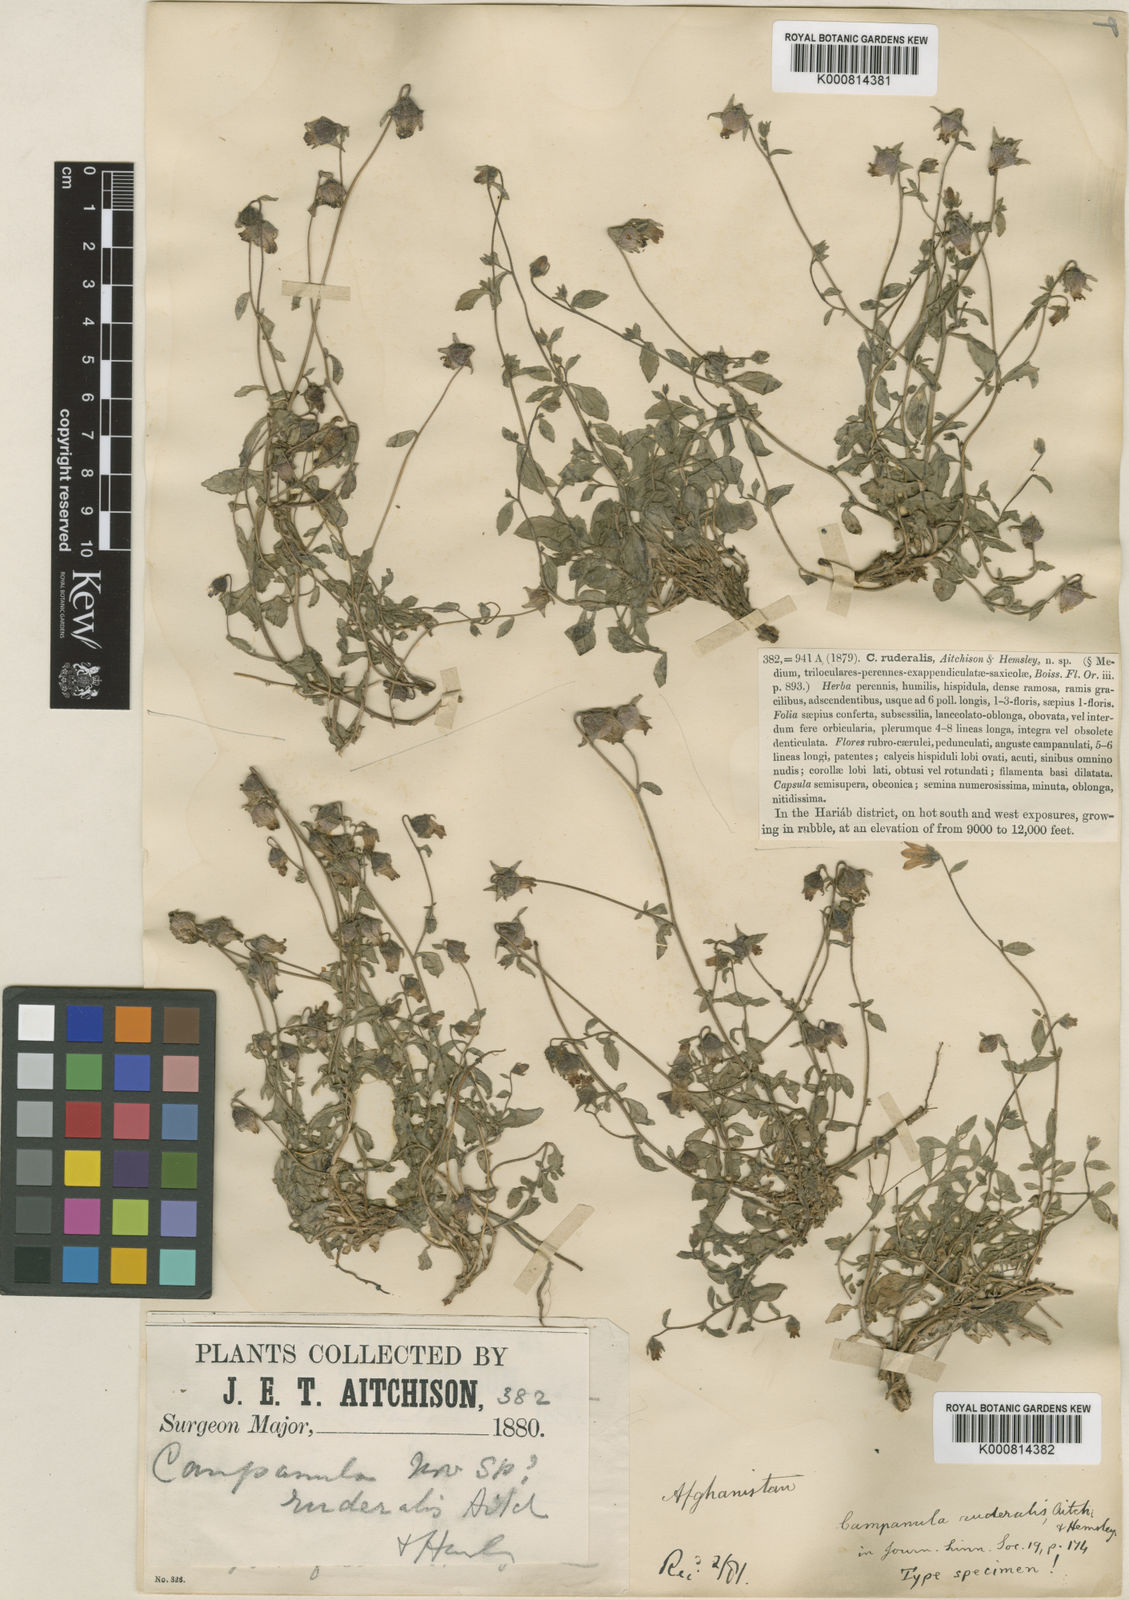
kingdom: Plantae
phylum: Tracheophyta
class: Magnoliopsida
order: Asterales
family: Campanulaceae
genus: Campanula
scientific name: Campanula cashmeriana
